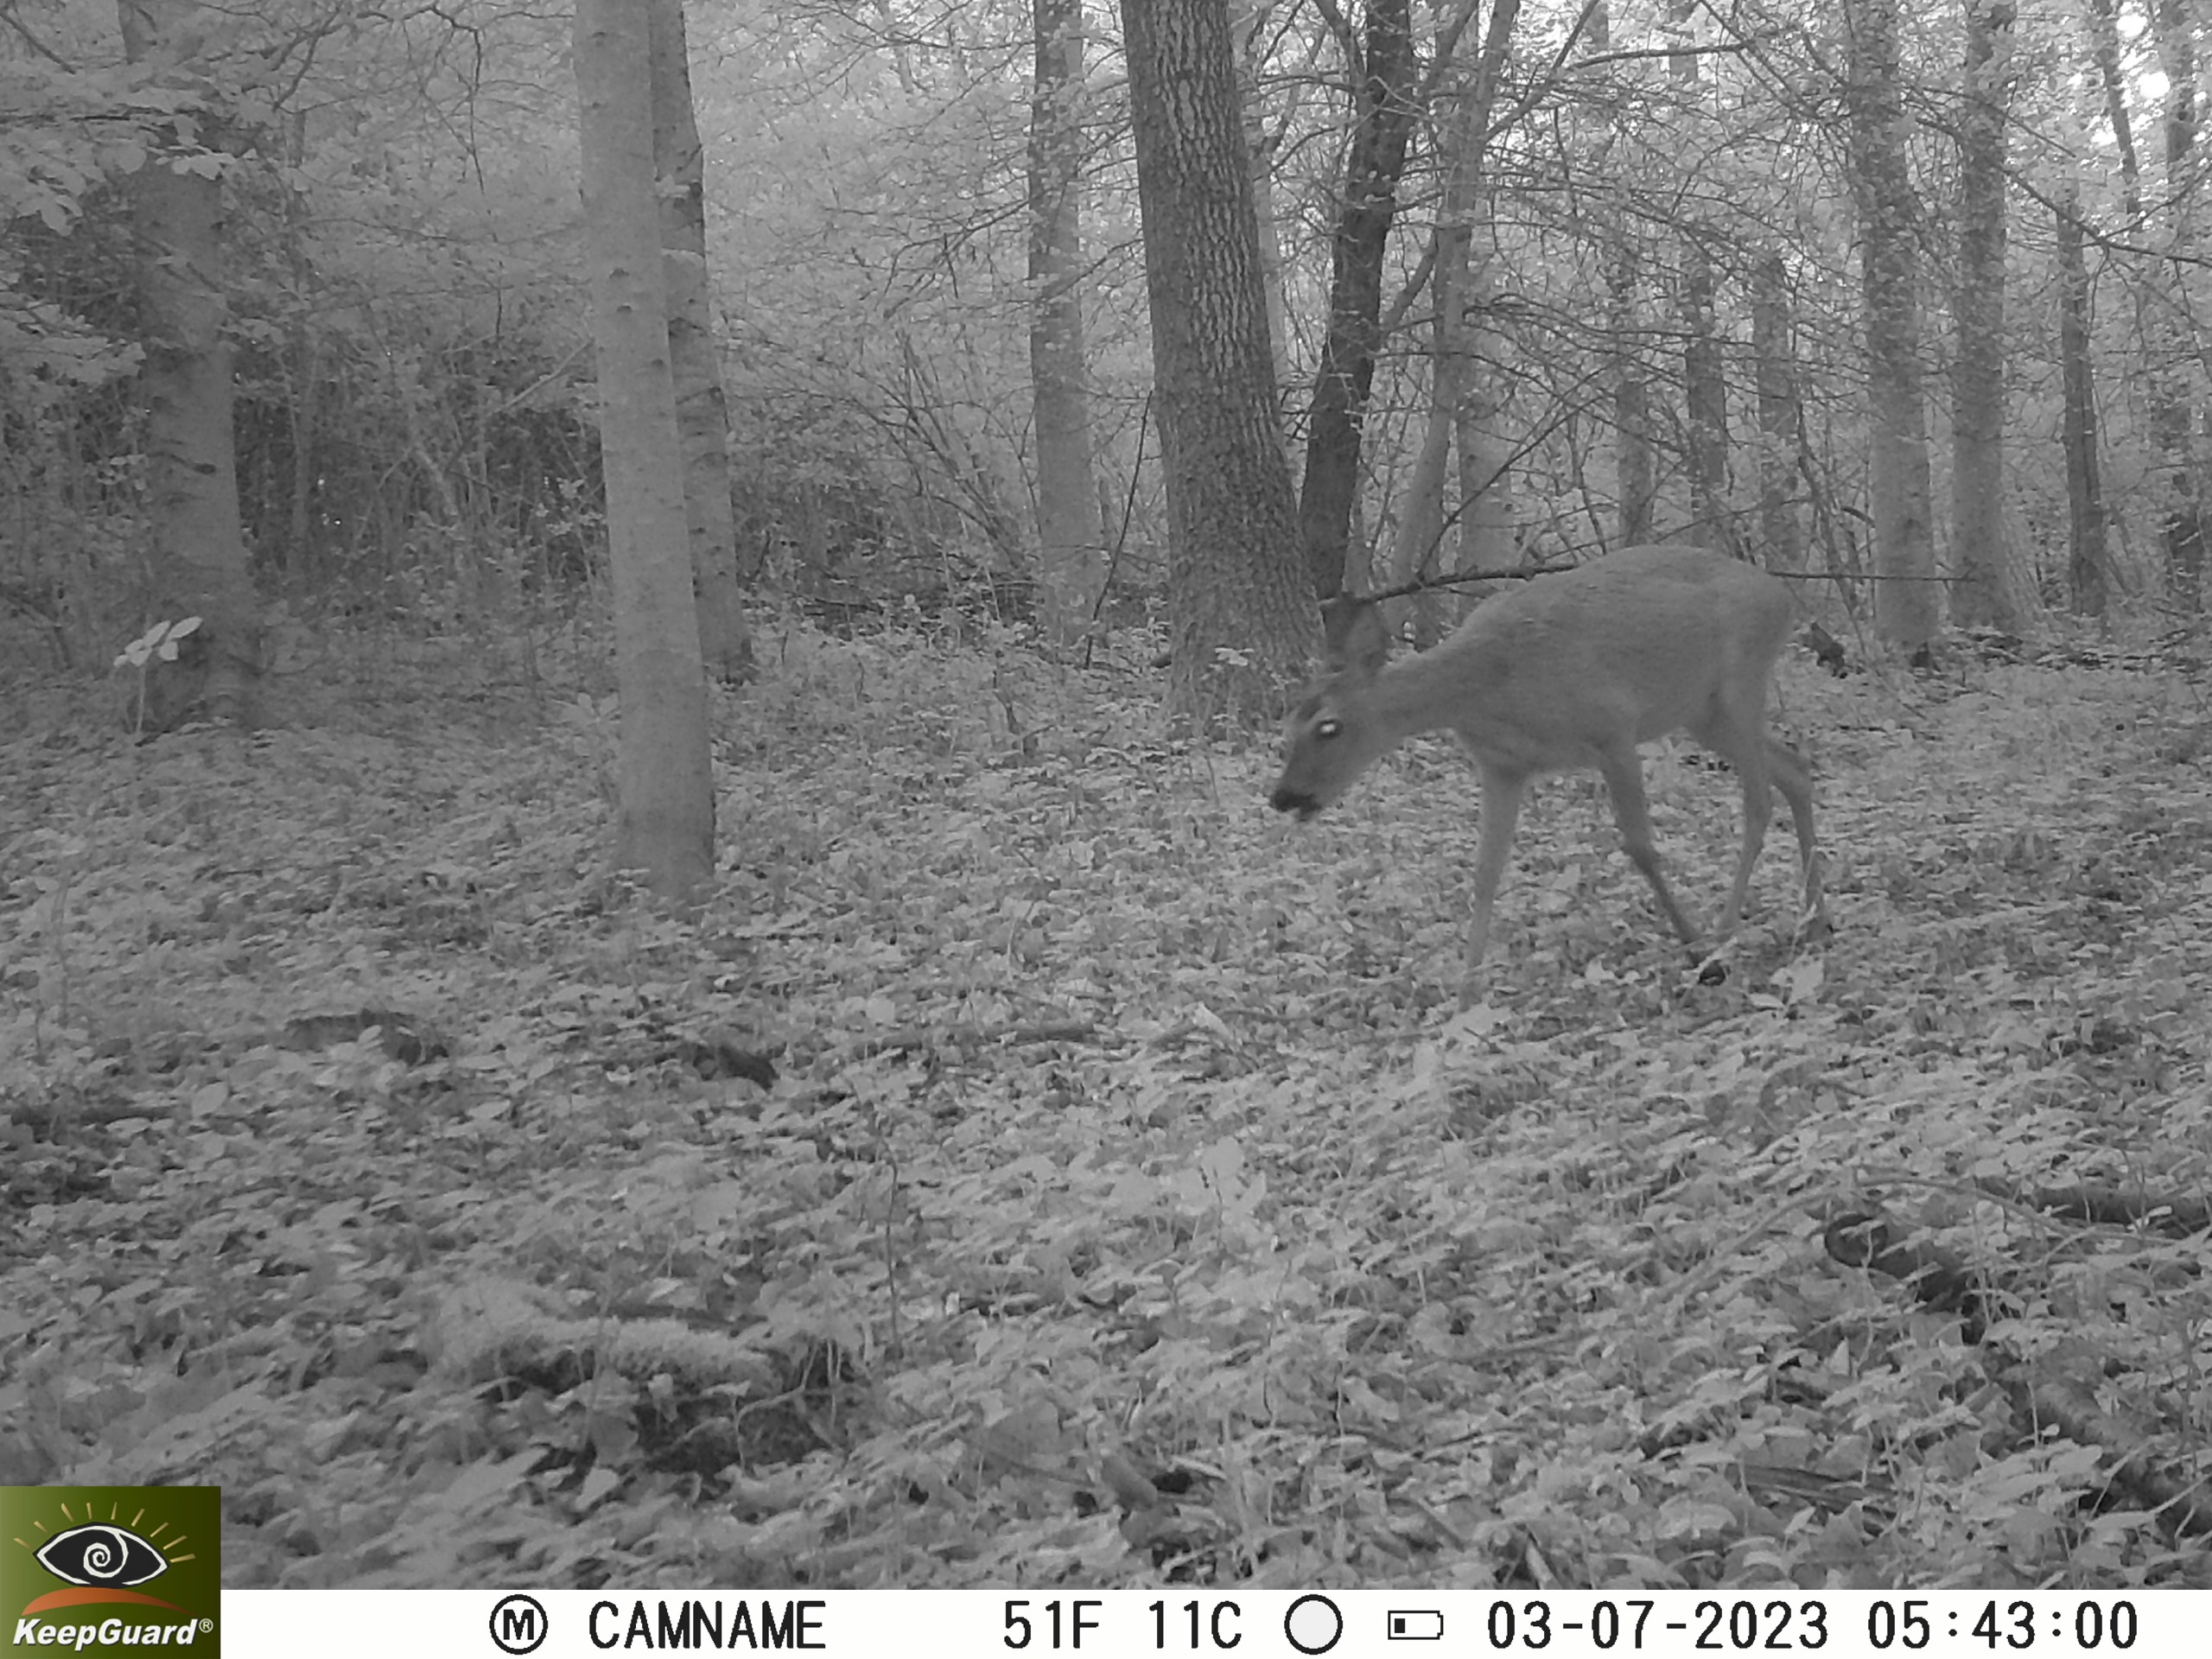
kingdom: Animalia
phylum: Chordata
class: Mammalia
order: Artiodactyla
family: Cervidae
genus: Capreolus
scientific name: Capreolus capreolus
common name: Rådyr
